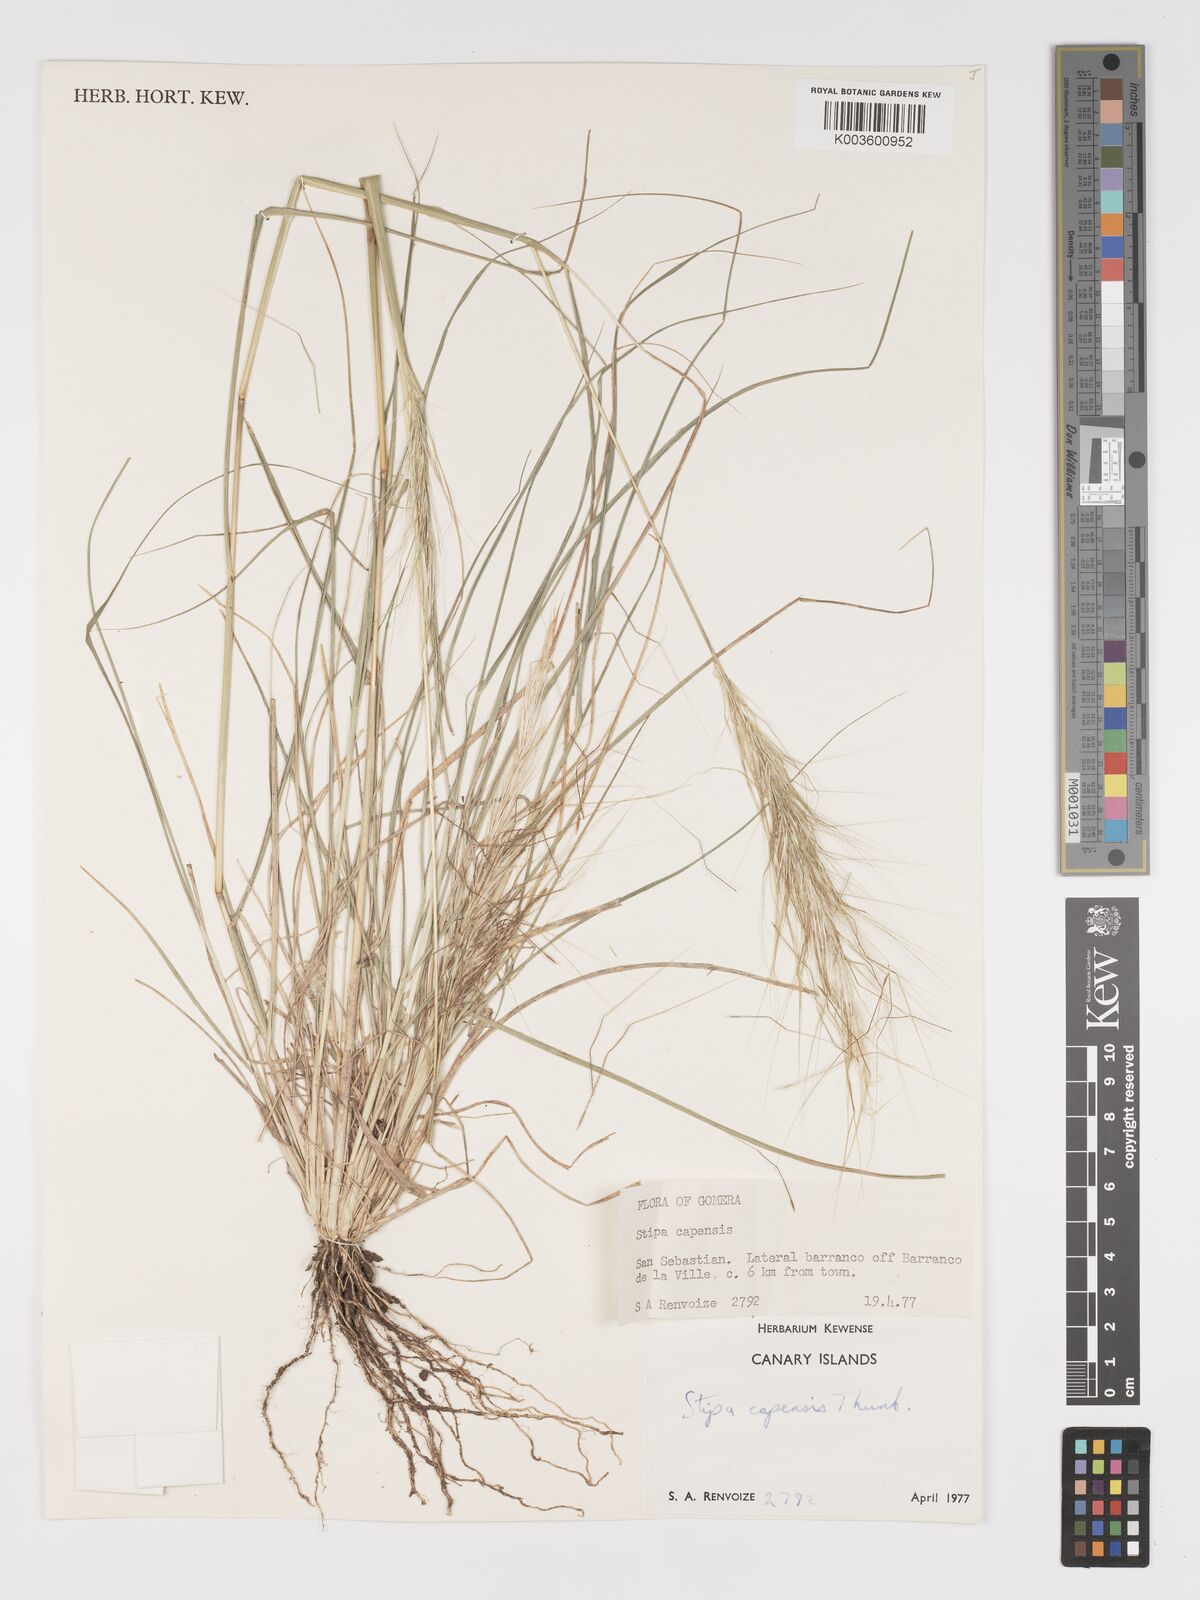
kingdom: Plantae
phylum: Tracheophyta
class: Liliopsida
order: Poales
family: Poaceae
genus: Stipellula
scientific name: Stipellula capensis
